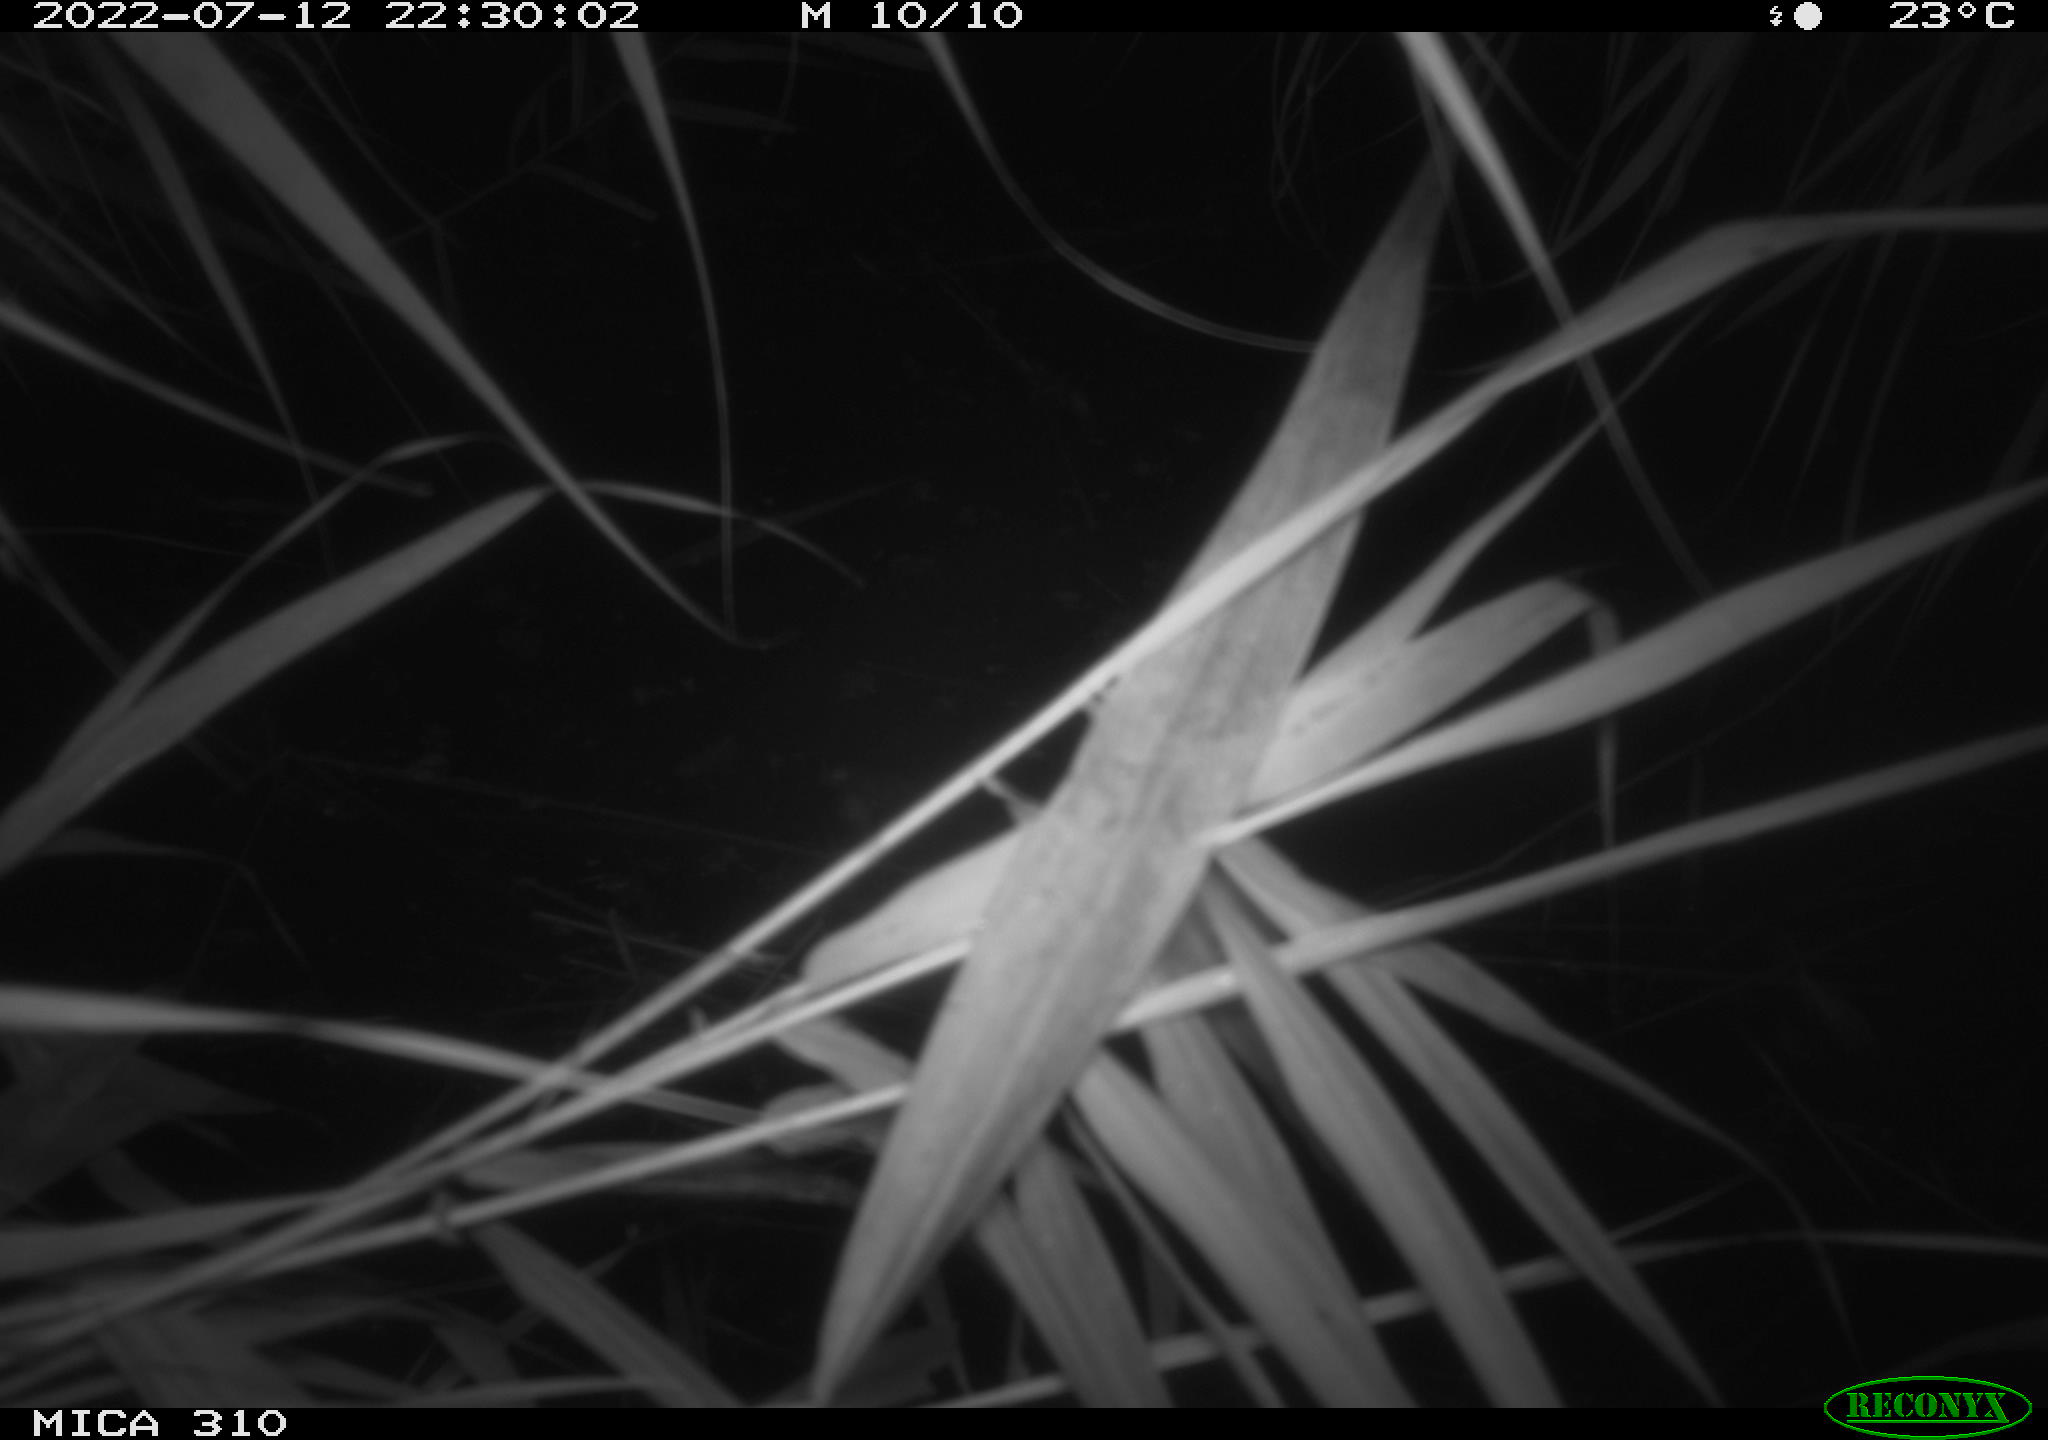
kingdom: Animalia
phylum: Chordata
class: Aves
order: Anseriformes
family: Anatidae
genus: Anas
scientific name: Anas platyrhynchos
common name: Mallard
